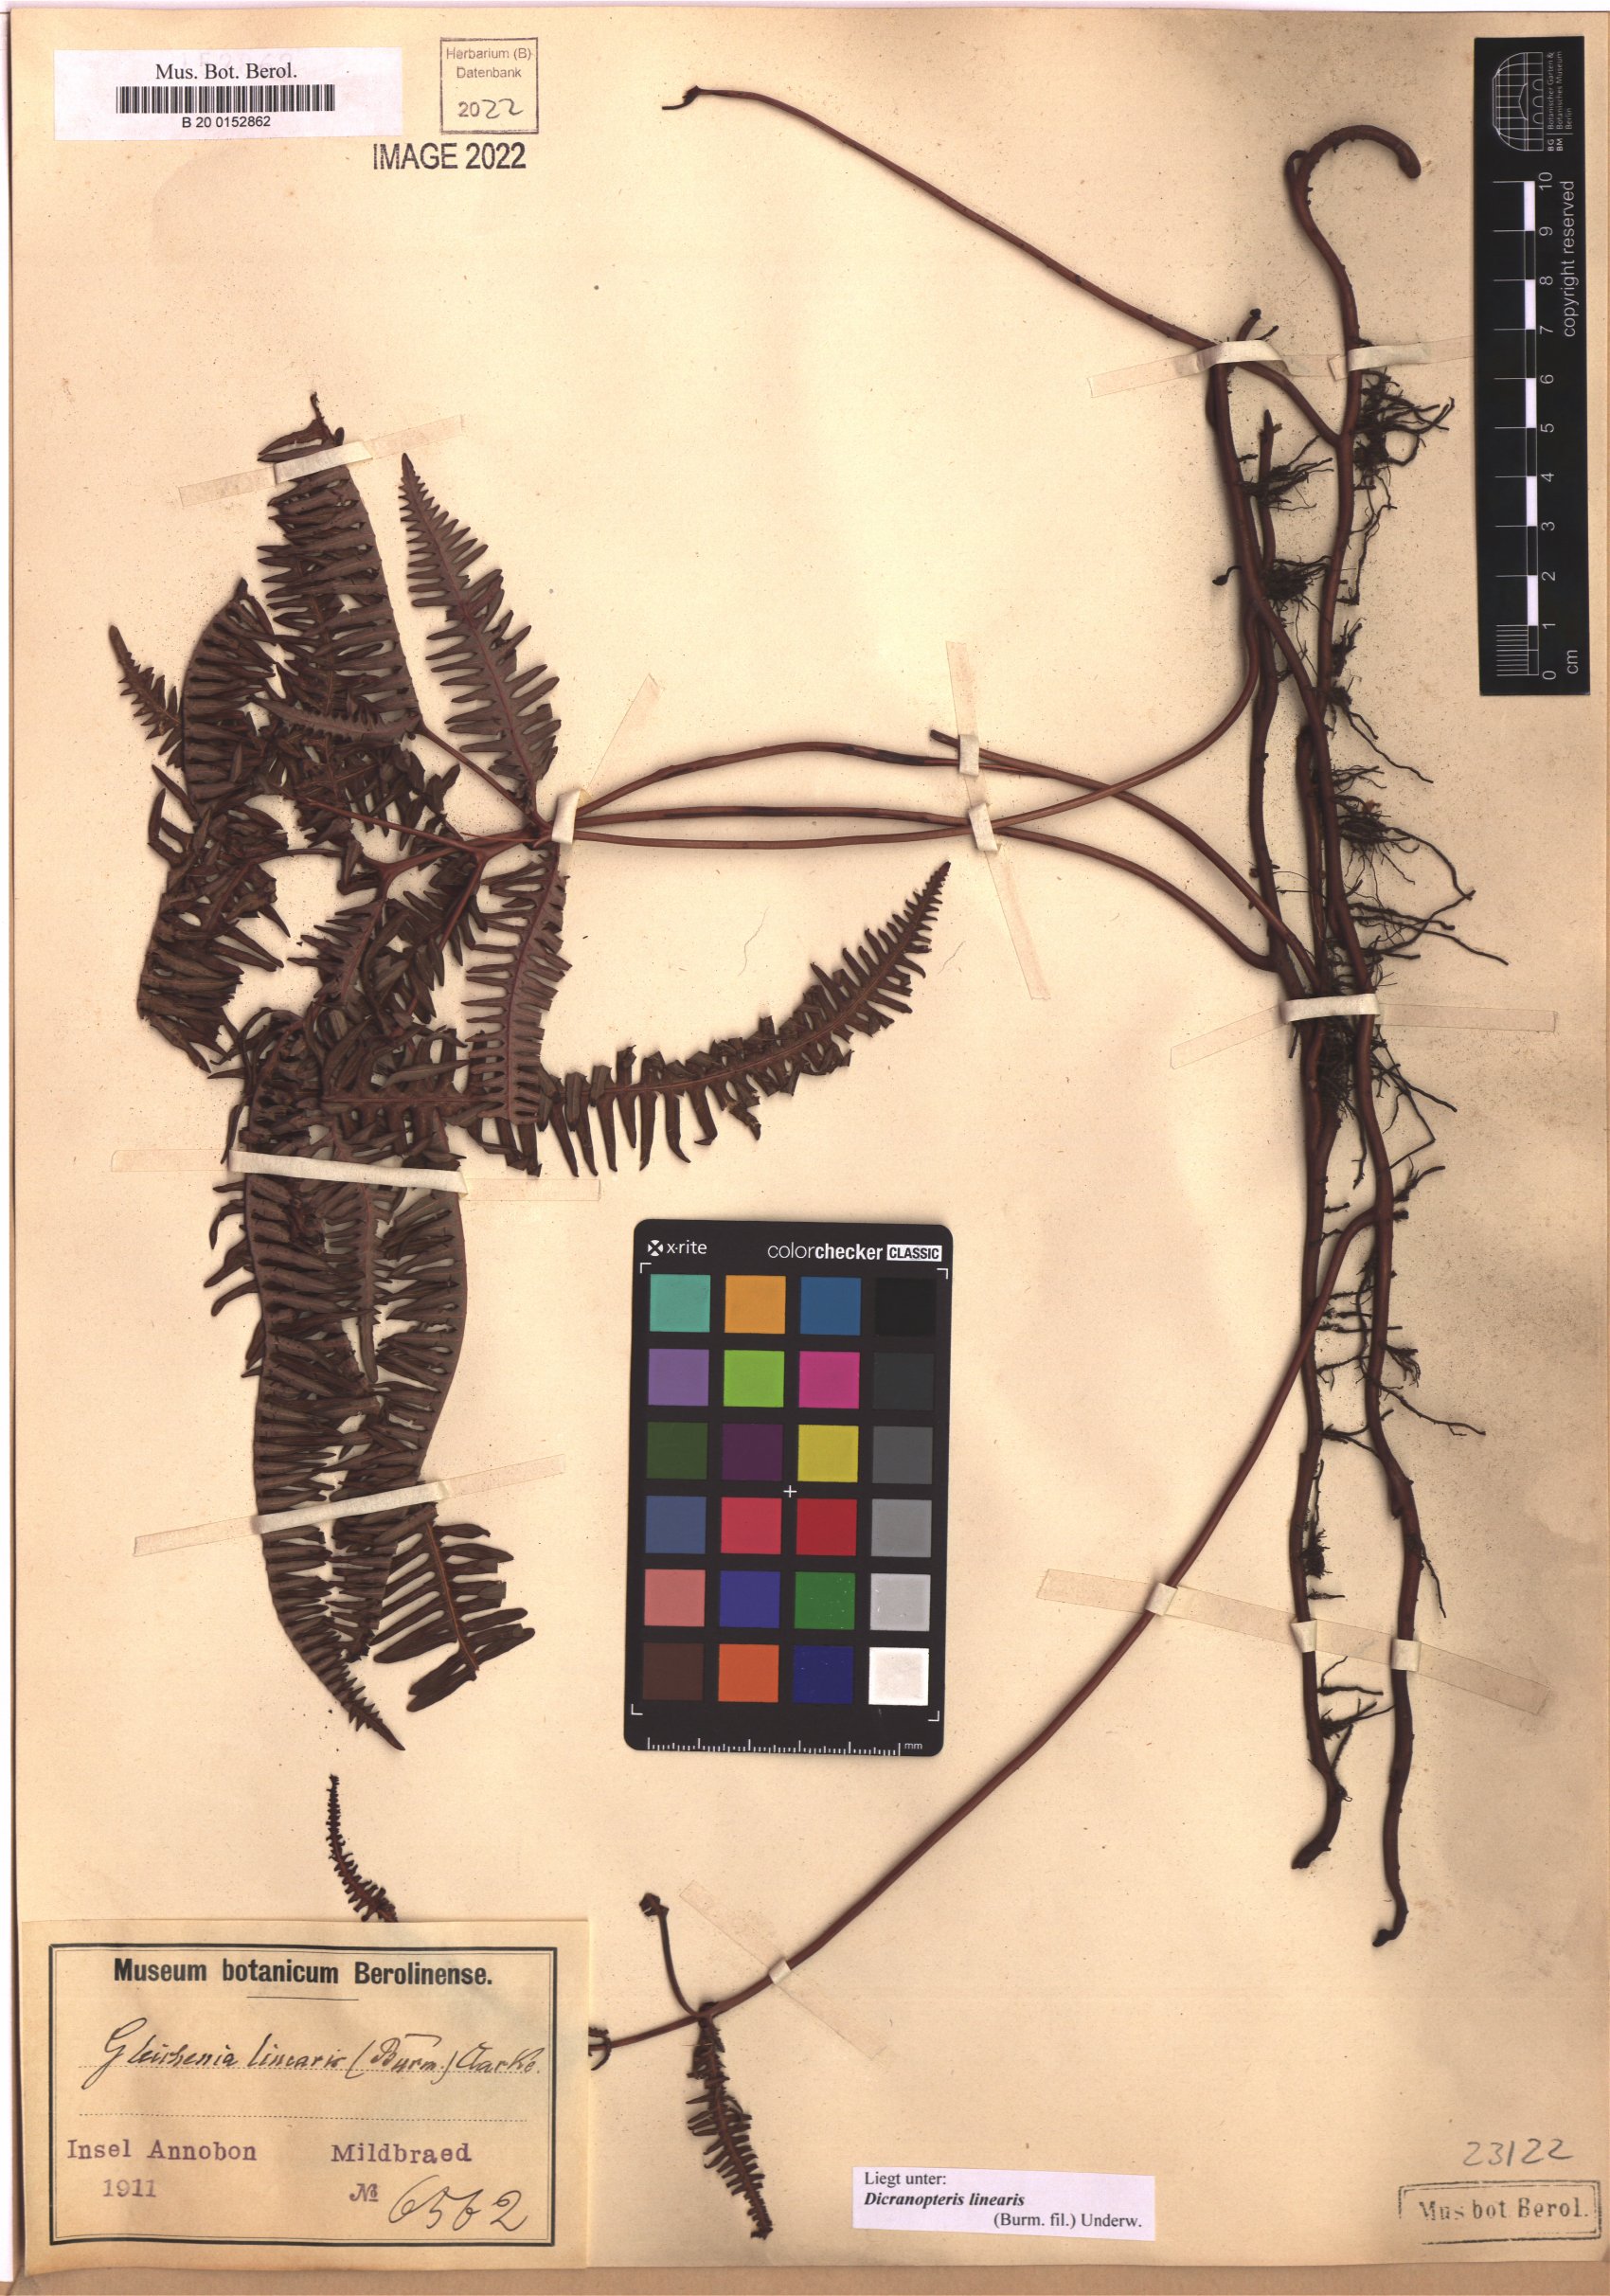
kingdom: Plantae
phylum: Tracheophyta
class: Polypodiopsida
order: Gleicheniales
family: Gleicheniaceae
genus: Dicranopteris
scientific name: Dicranopteris linearis
